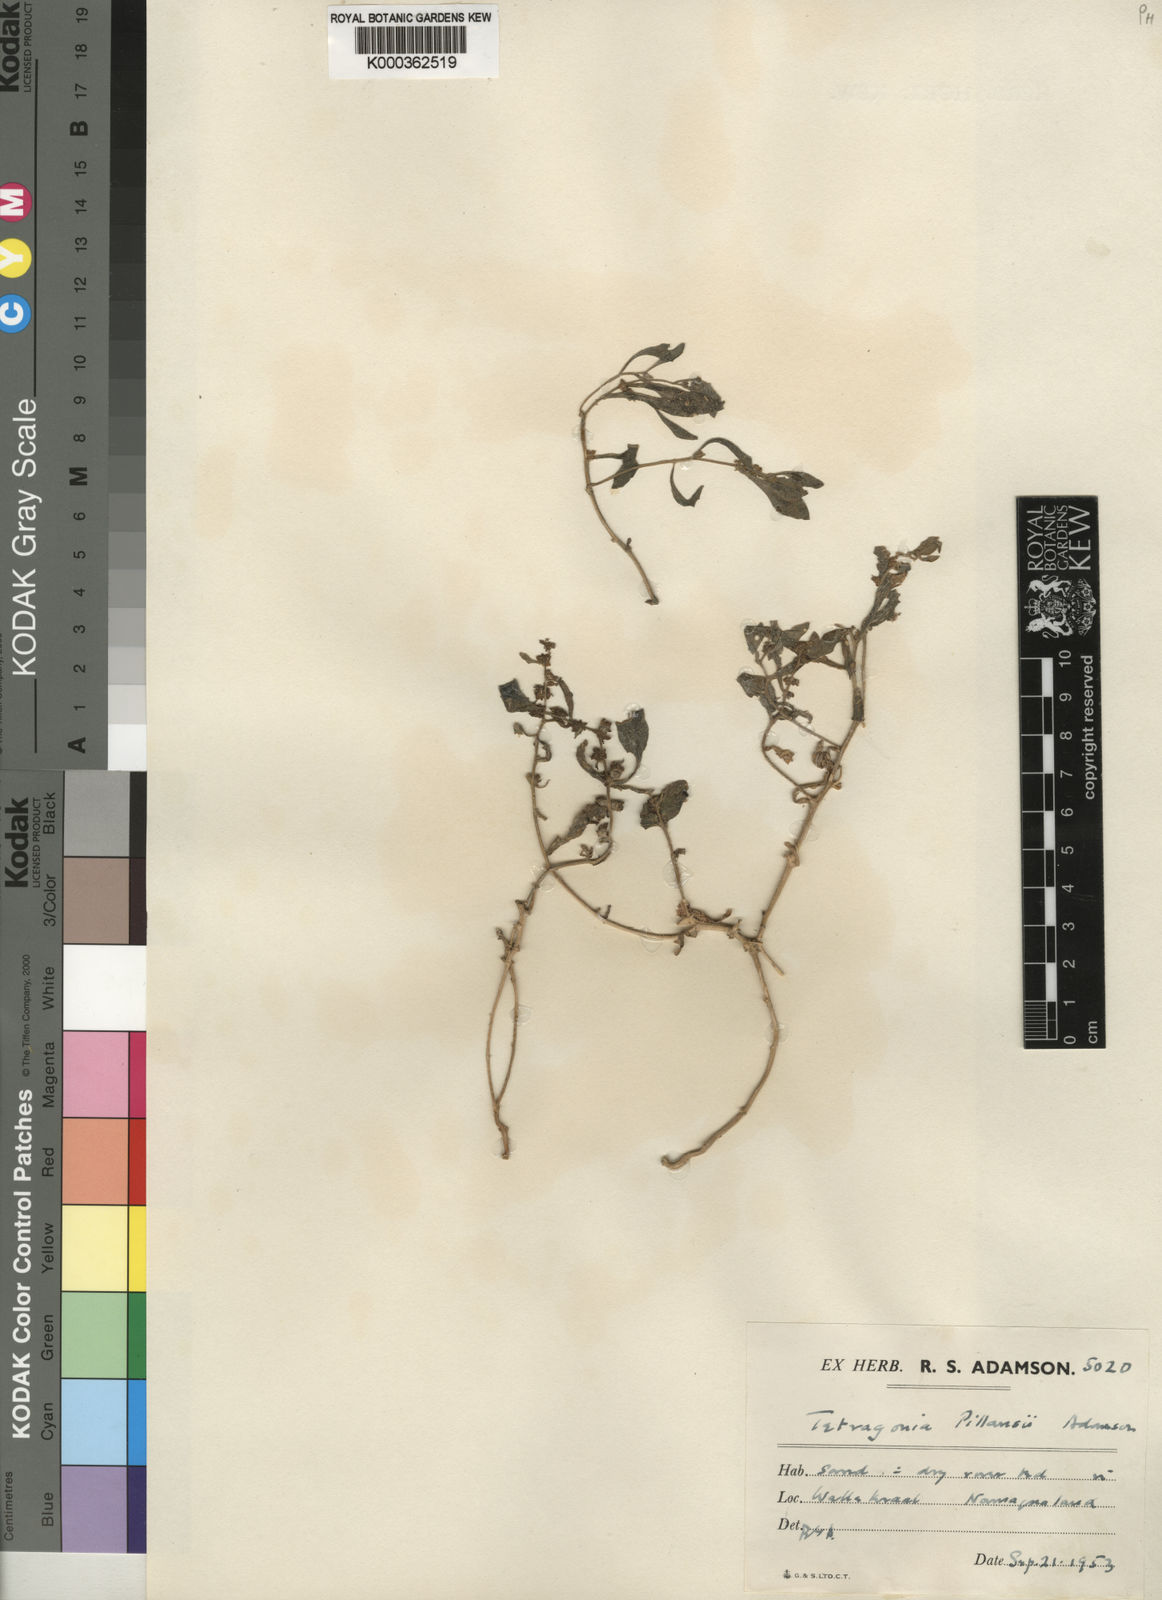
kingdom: Plantae
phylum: Tracheophyta
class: Magnoliopsida
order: Caryophyllales
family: Aizoaceae
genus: Tetragonia
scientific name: Tetragonia pillansii
